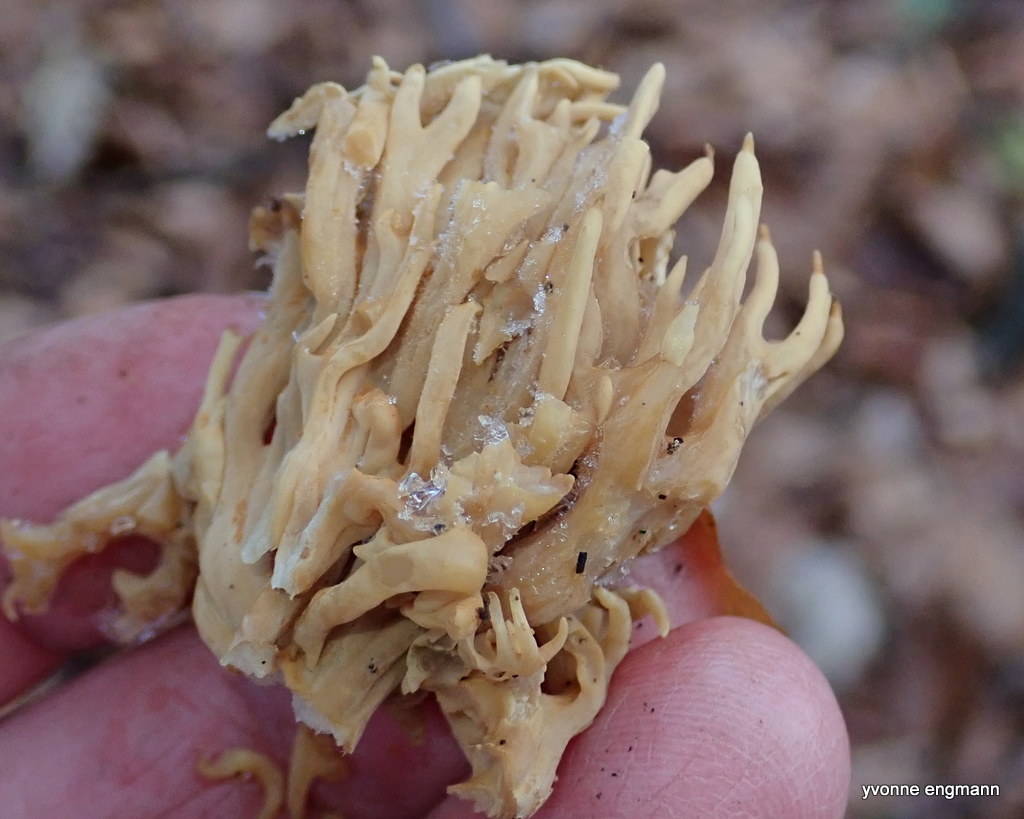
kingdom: Fungi
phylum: Basidiomycota
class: Agaricomycetes
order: Gomphales
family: Gomphaceae
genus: Ramaria
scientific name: Ramaria stricta
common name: rank koralsvamp
